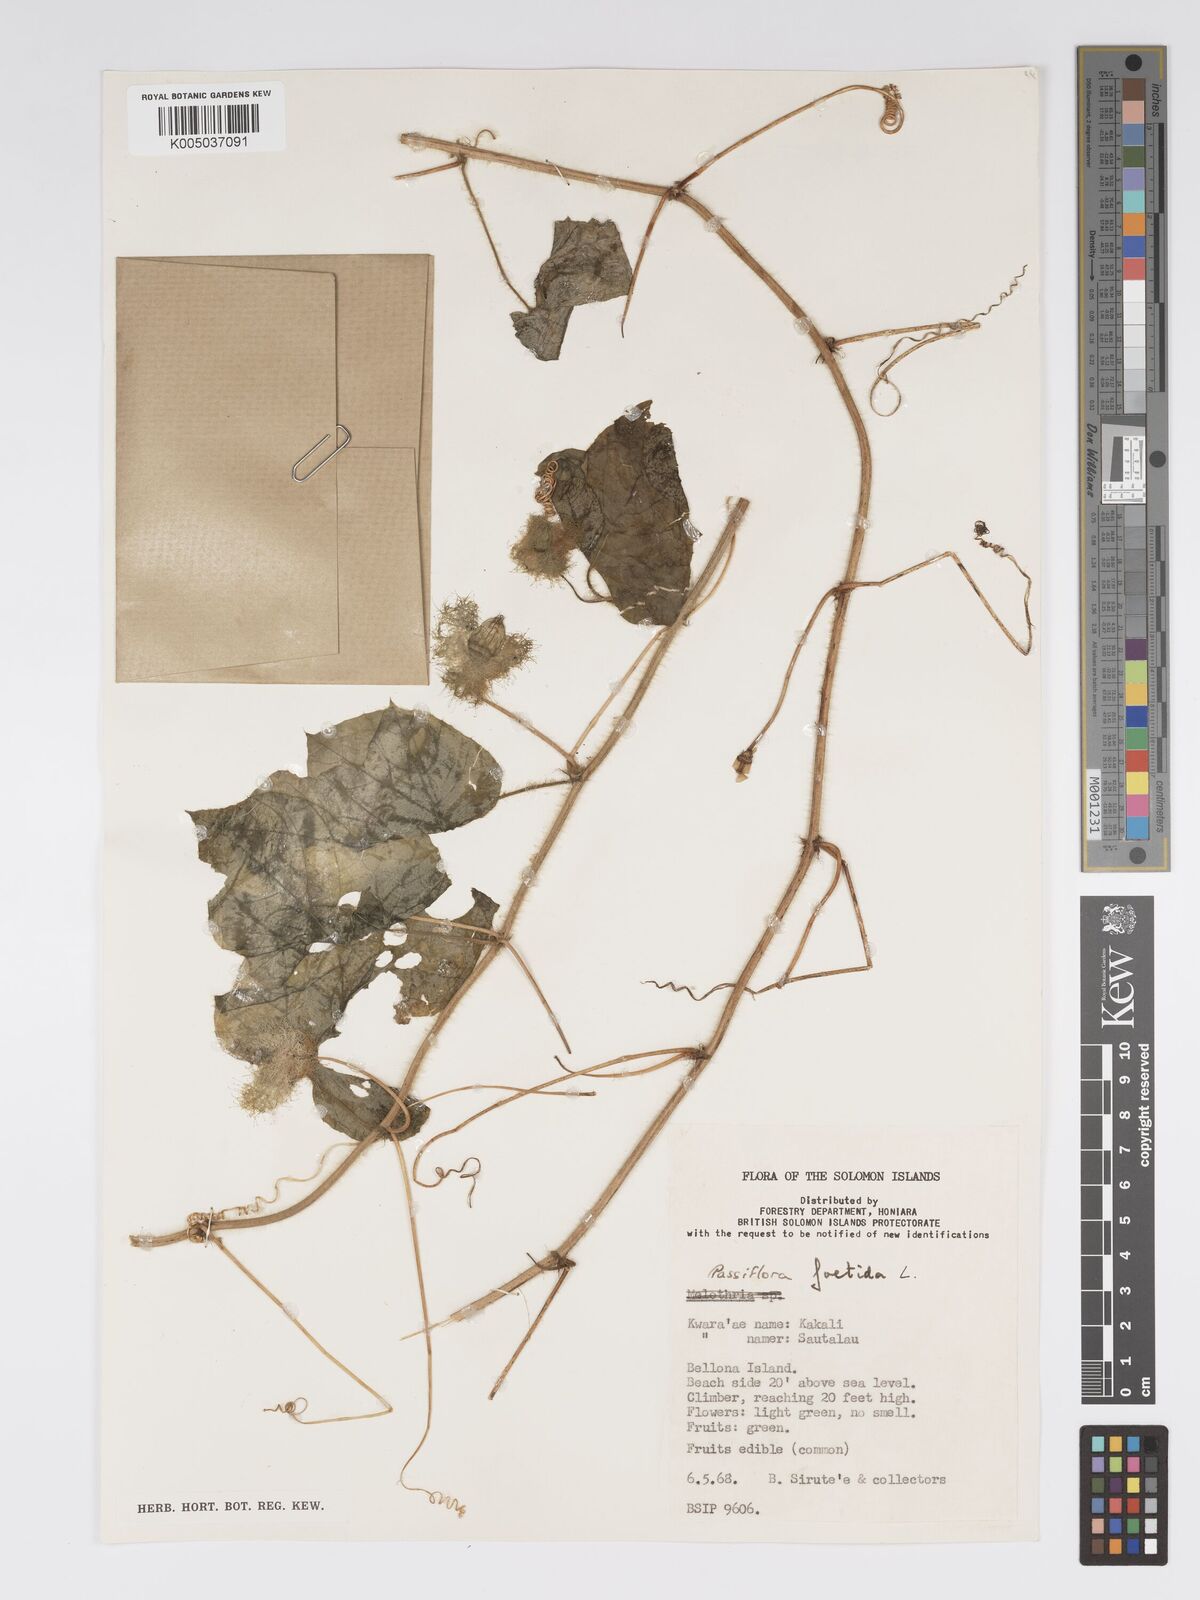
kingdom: Plantae
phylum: Tracheophyta
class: Magnoliopsida
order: Malpighiales
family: Passifloraceae
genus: Passiflora
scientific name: Passiflora foetida
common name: Fetid passionflower
